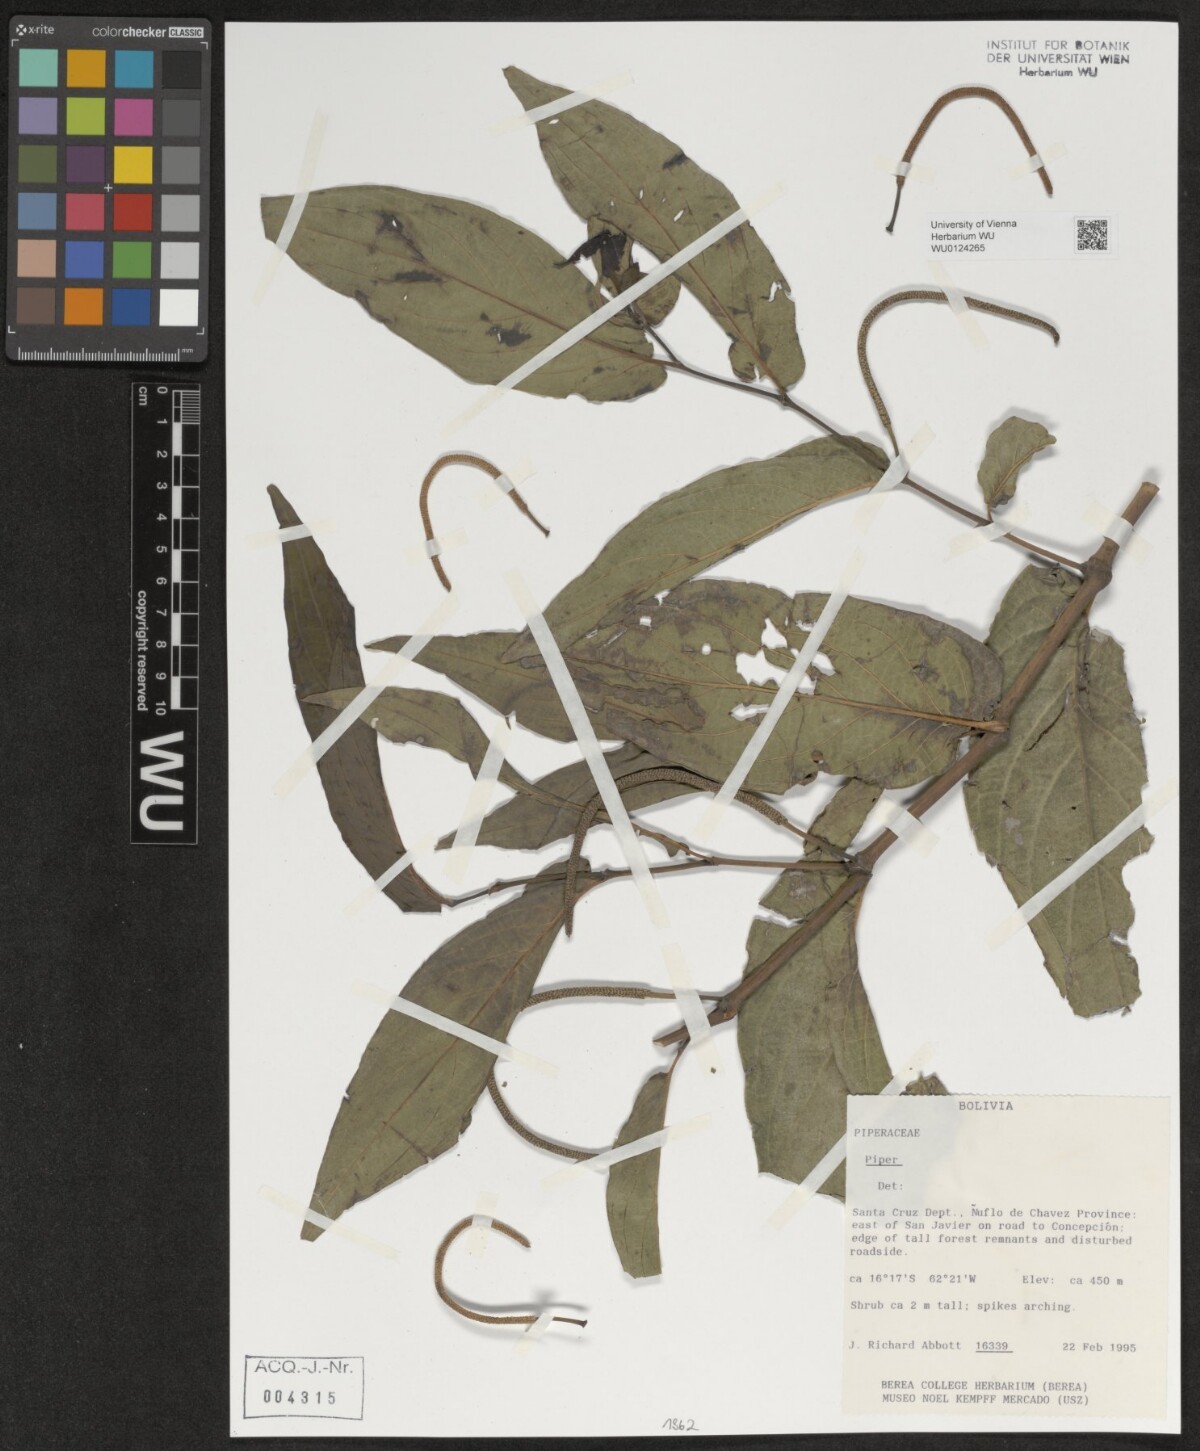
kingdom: Plantae
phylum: Tracheophyta
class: Magnoliopsida
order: Piperales
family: Piperaceae
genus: Piper
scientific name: Piper
